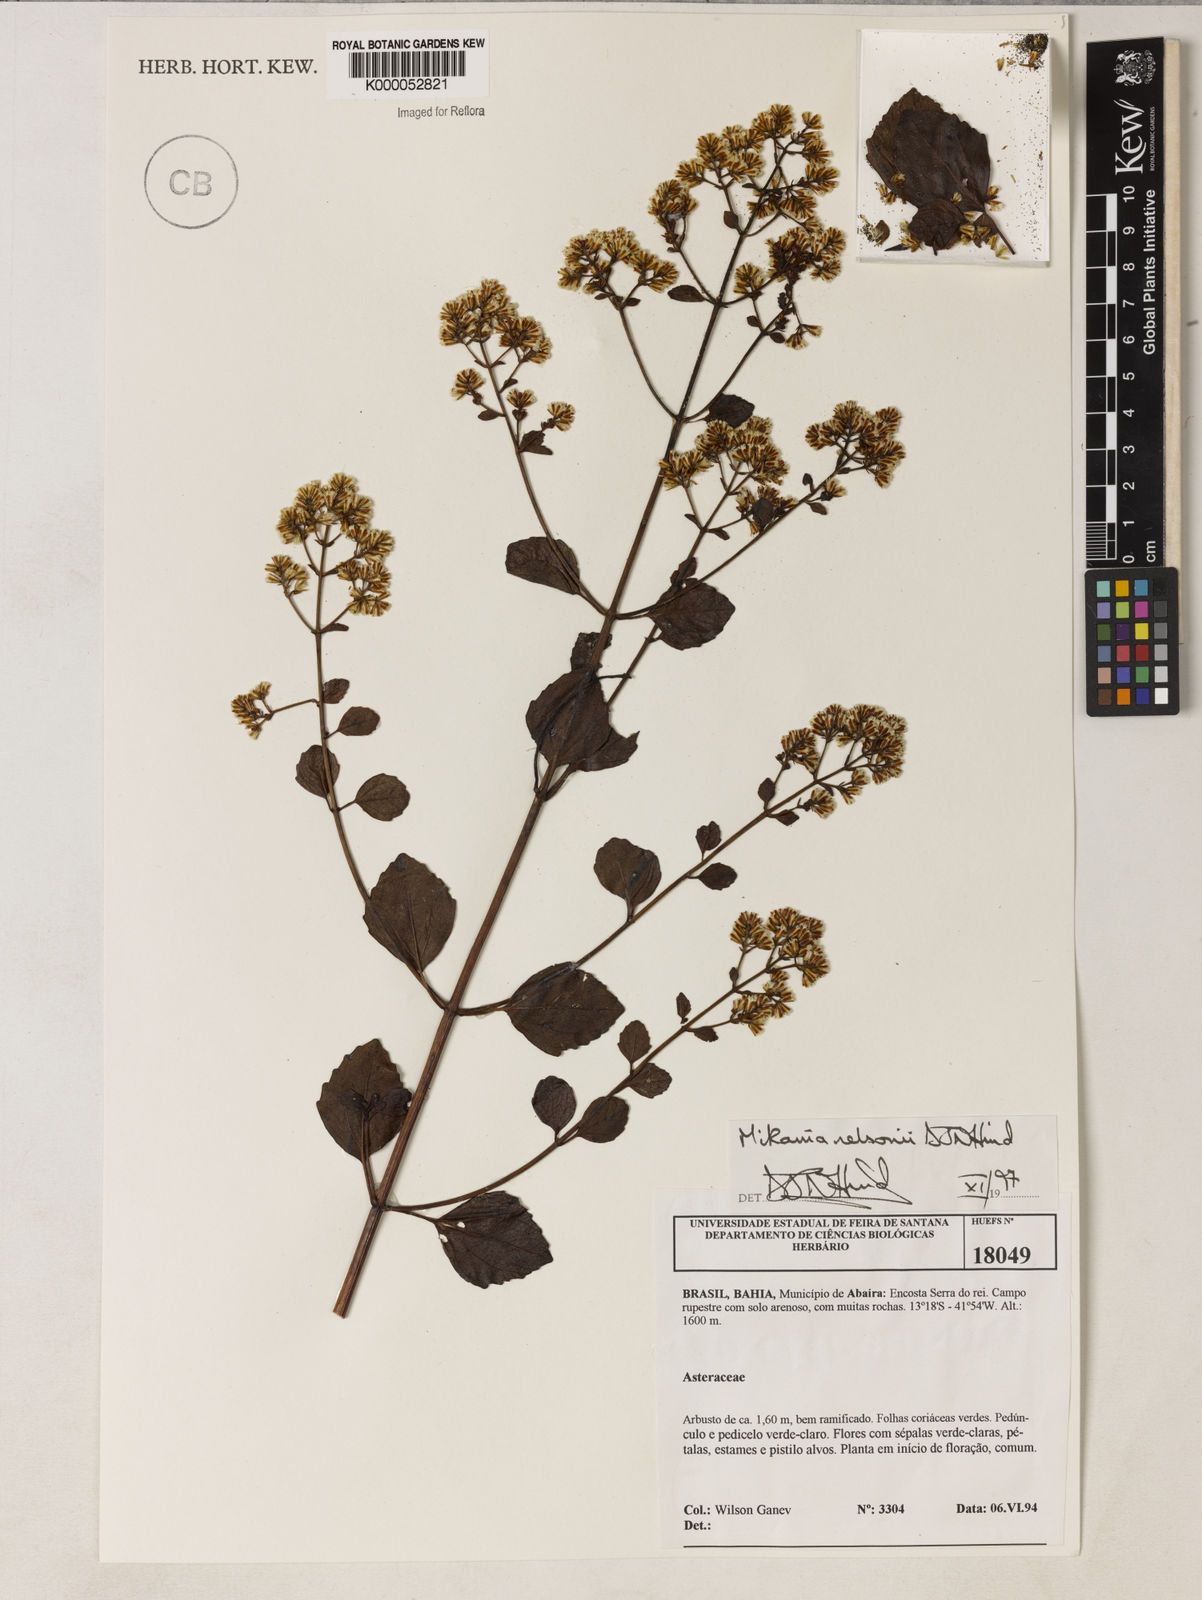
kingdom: Plantae
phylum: Tracheophyta
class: Magnoliopsida
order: Asterales
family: Asteraceae
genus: Mikania
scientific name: Mikania nelsonii
